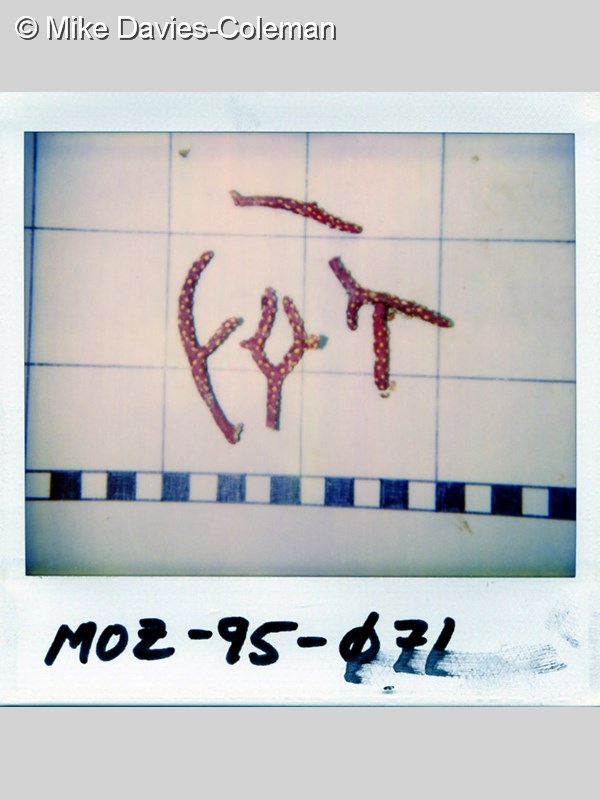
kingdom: Animalia
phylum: Cnidaria
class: Anthozoa
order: Scleralcyonacea
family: Spongiodermidae
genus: Homophyton
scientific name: Homophyton verrucosum
